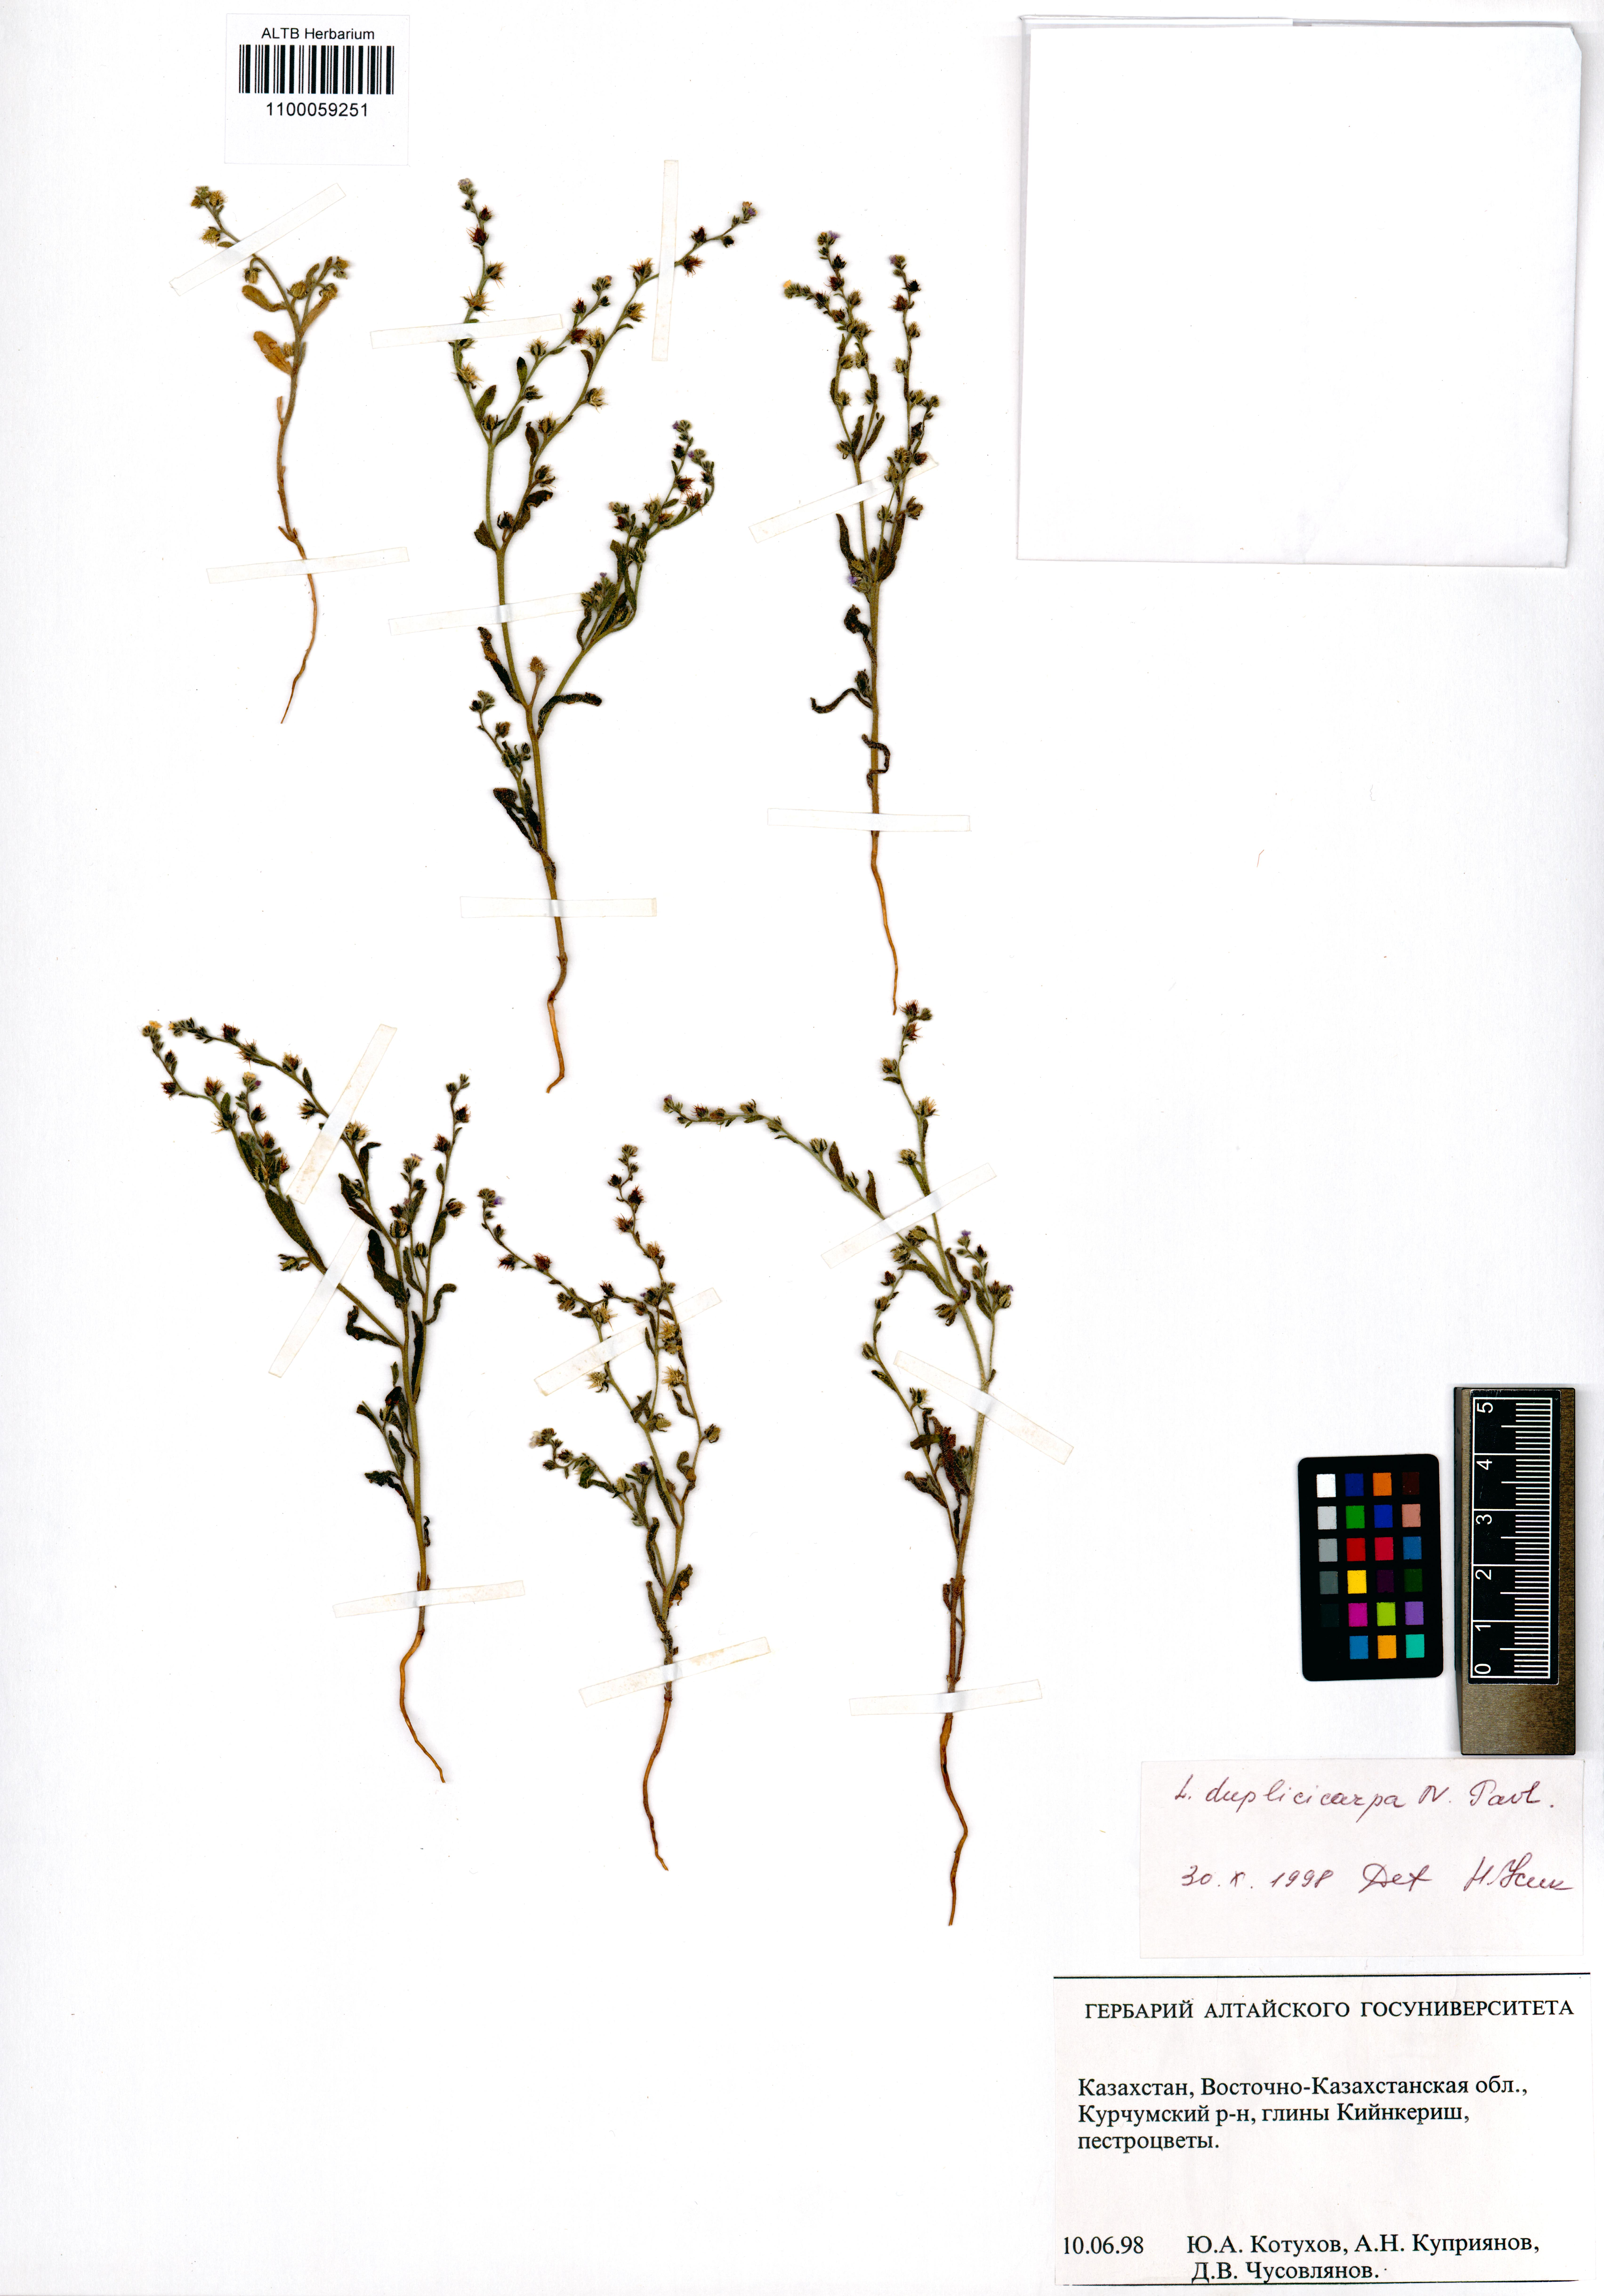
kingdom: Plantae
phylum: Tracheophyta
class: Magnoliopsida
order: Boraginales
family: Boraginaceae
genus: Lappula
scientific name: Lappula duplicicarpa
